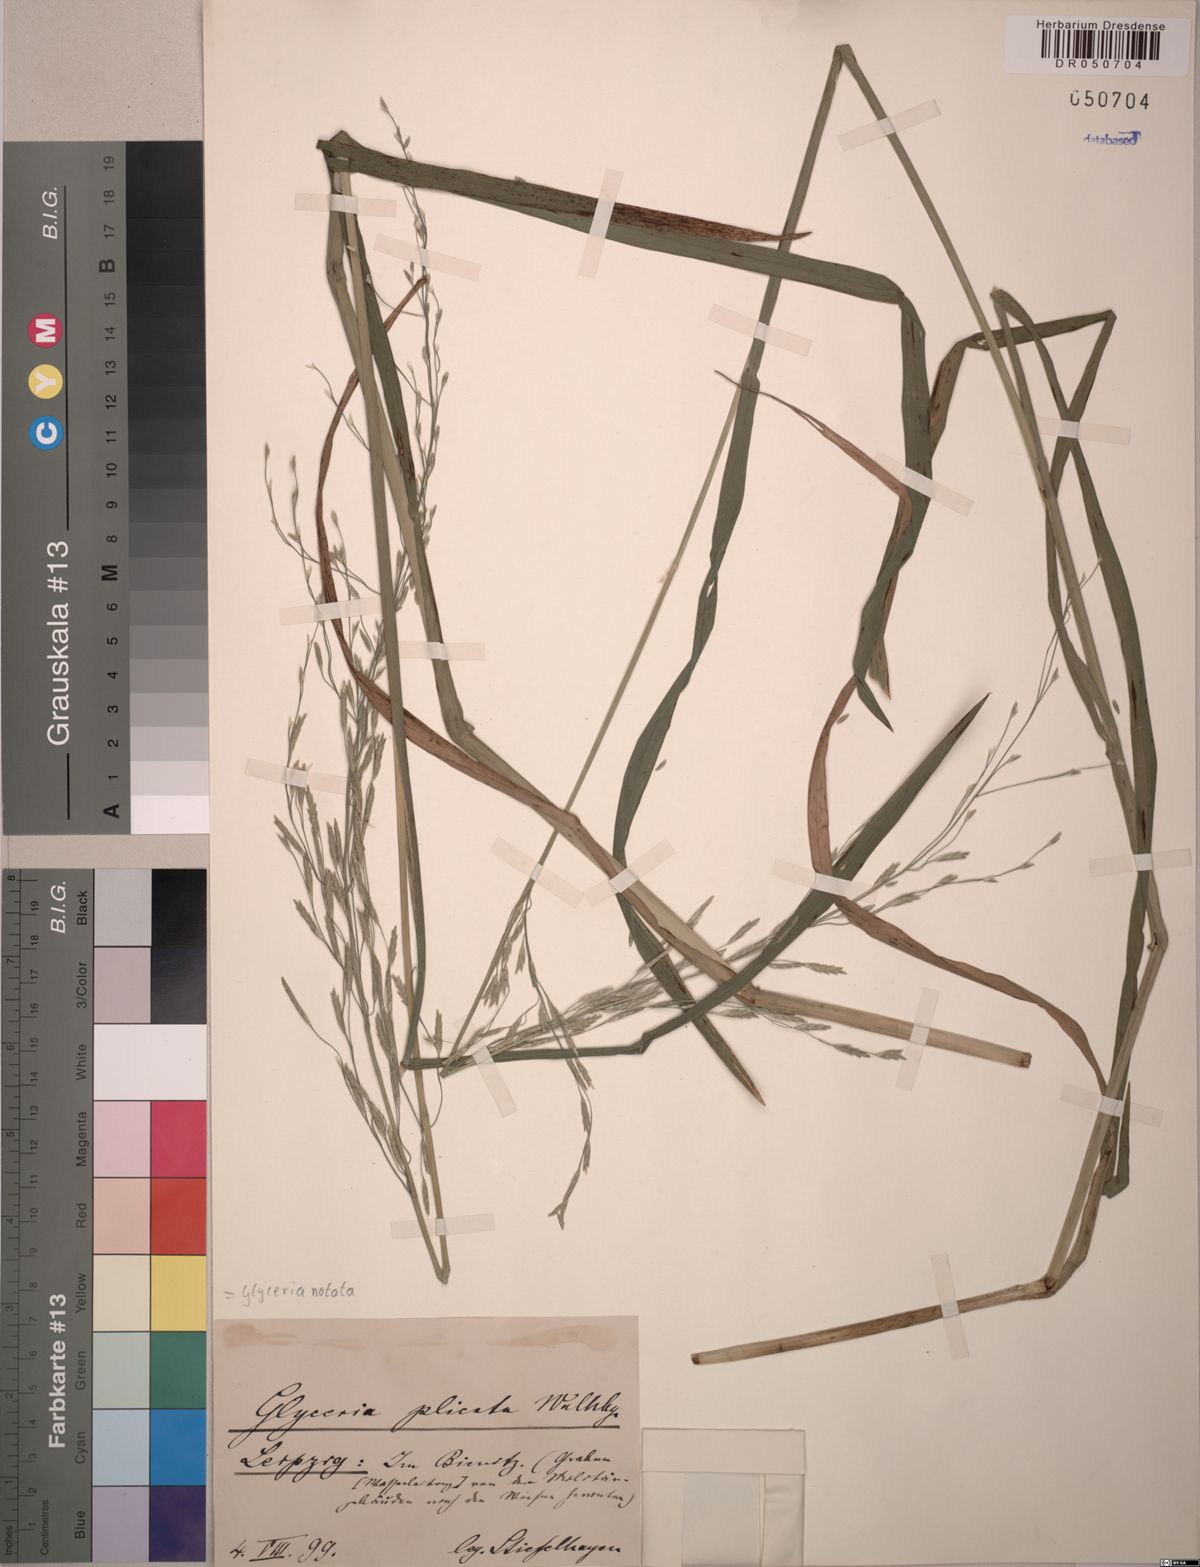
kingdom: Plantae
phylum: Tracheophyta
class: Liliopsida
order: Poales
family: Poaceae
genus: Glyceria
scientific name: Glyceria notata
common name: Plicate sweet-grass
